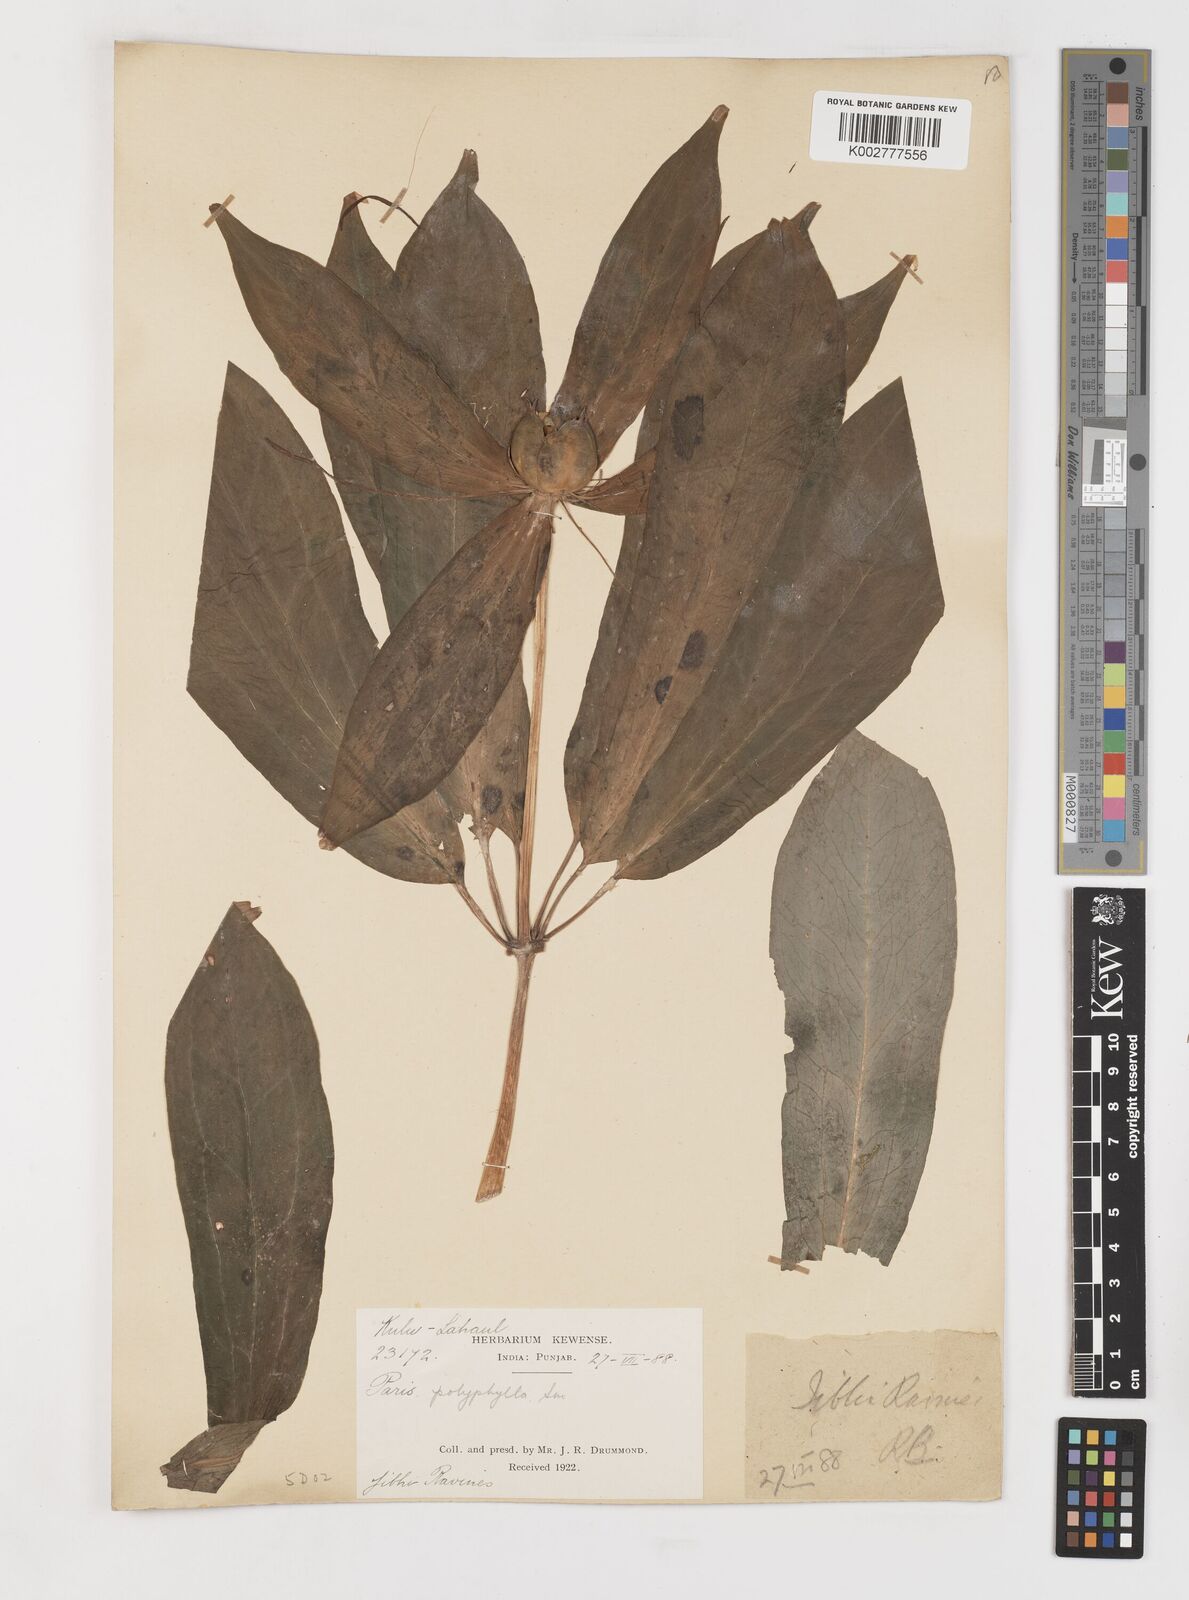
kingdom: Plantae
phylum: Tracheophyta
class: Liliopsida
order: Liliales
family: Melanthiaceae
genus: Paris
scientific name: Paris polyphylla
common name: Love apple
